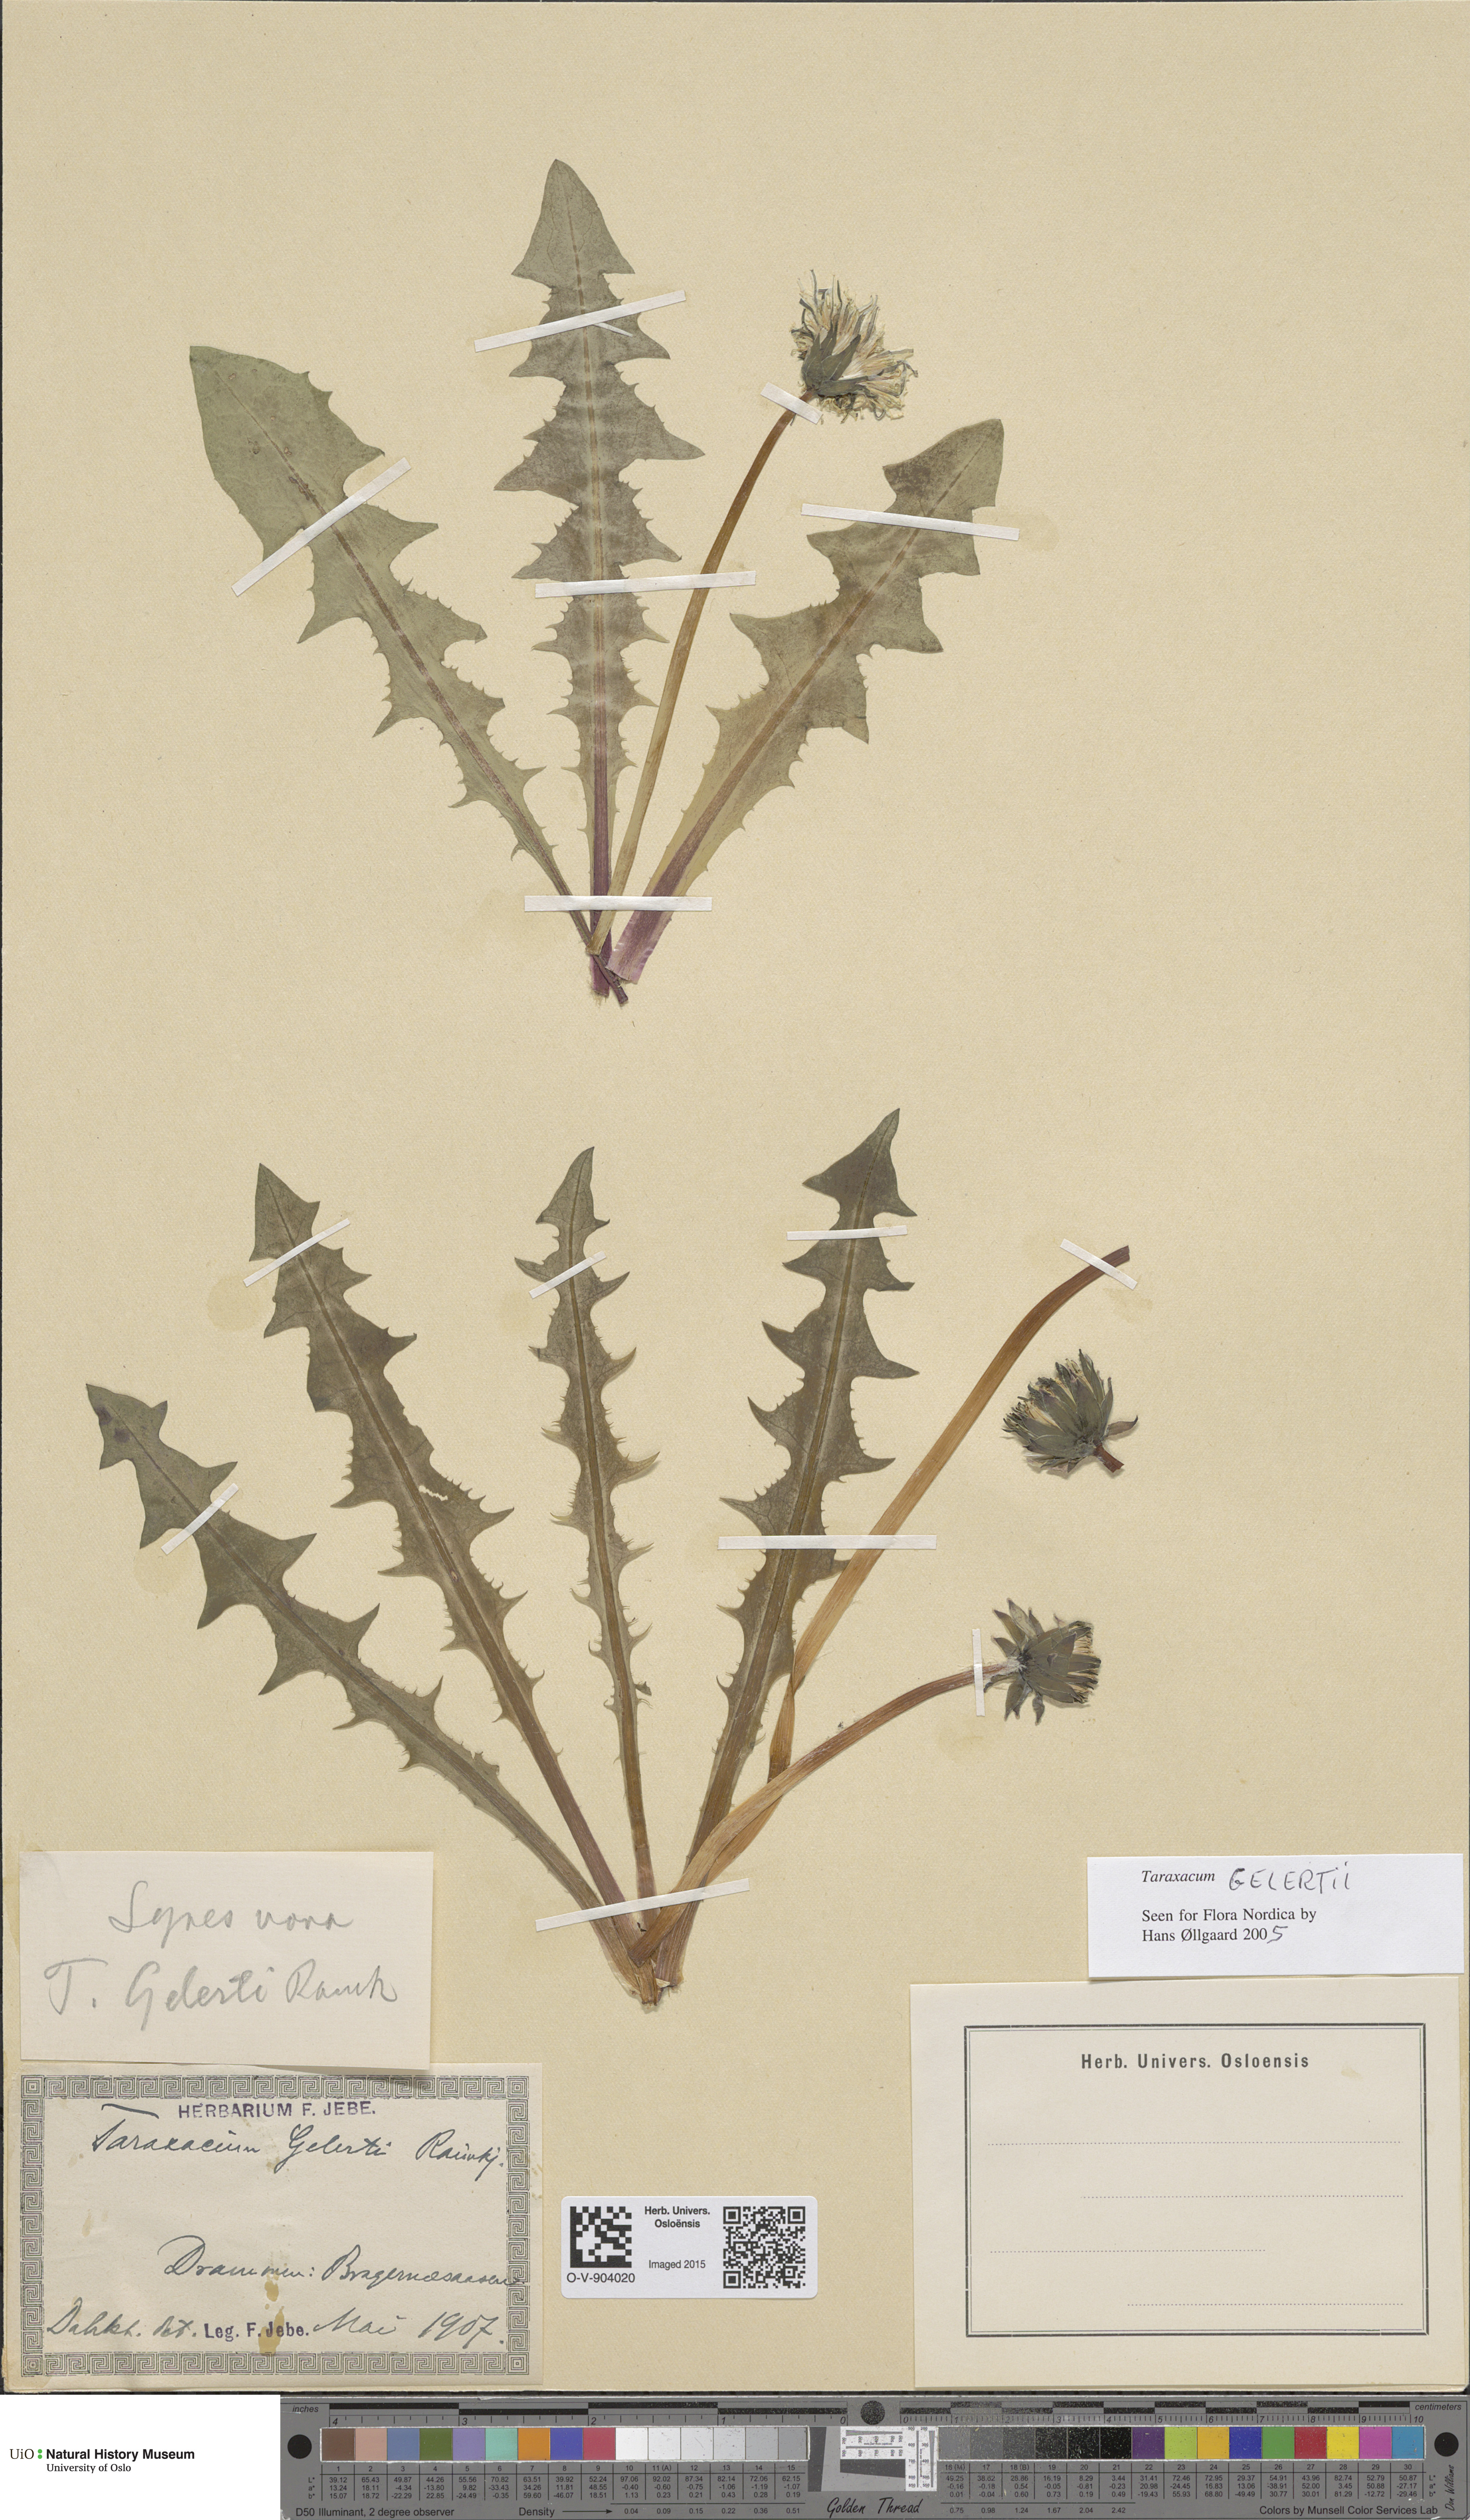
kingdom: Plantae
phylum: Tracheophyta
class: Magnoliopsida
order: Asterales
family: Asteraceae
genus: Taraxacum
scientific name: Taraxacum gelertii
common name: Gelert's dandelion
